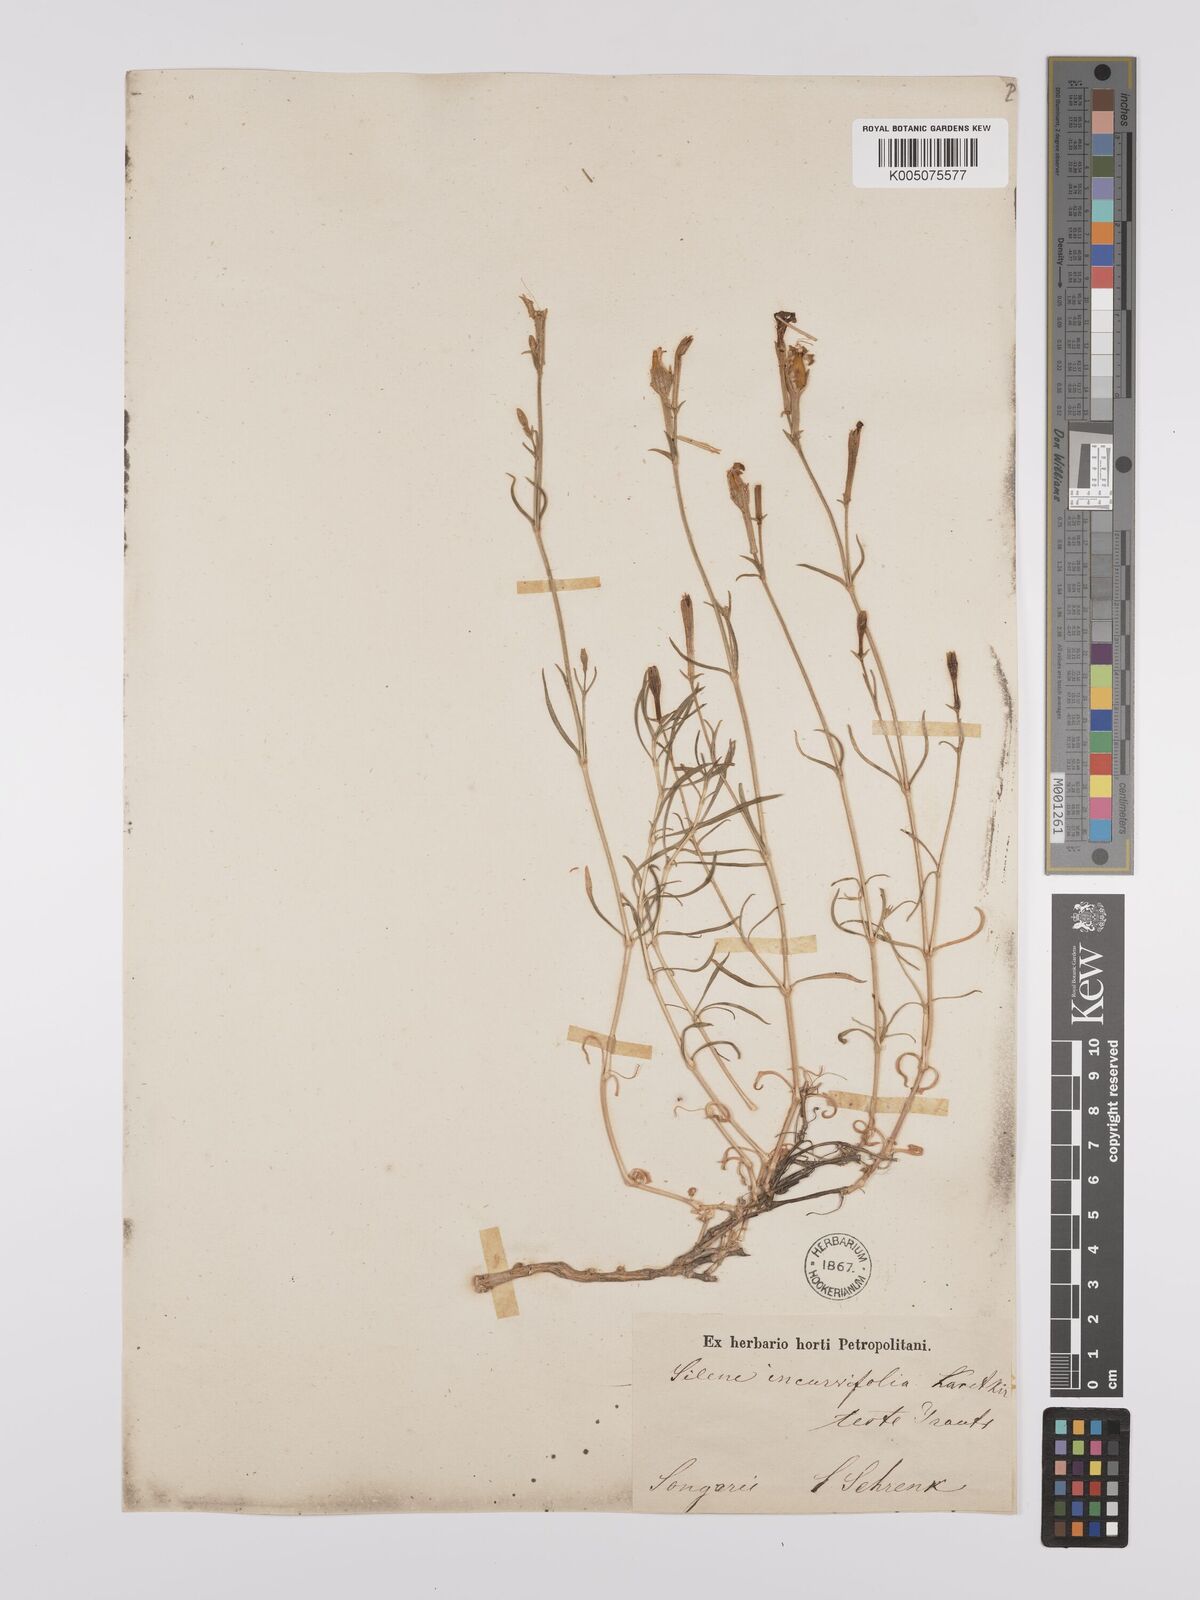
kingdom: Plantae
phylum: Tracheophyta
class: Magnoliopsida
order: Caryophyllales
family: Caryophyllaceae
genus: Silene
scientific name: Silene
